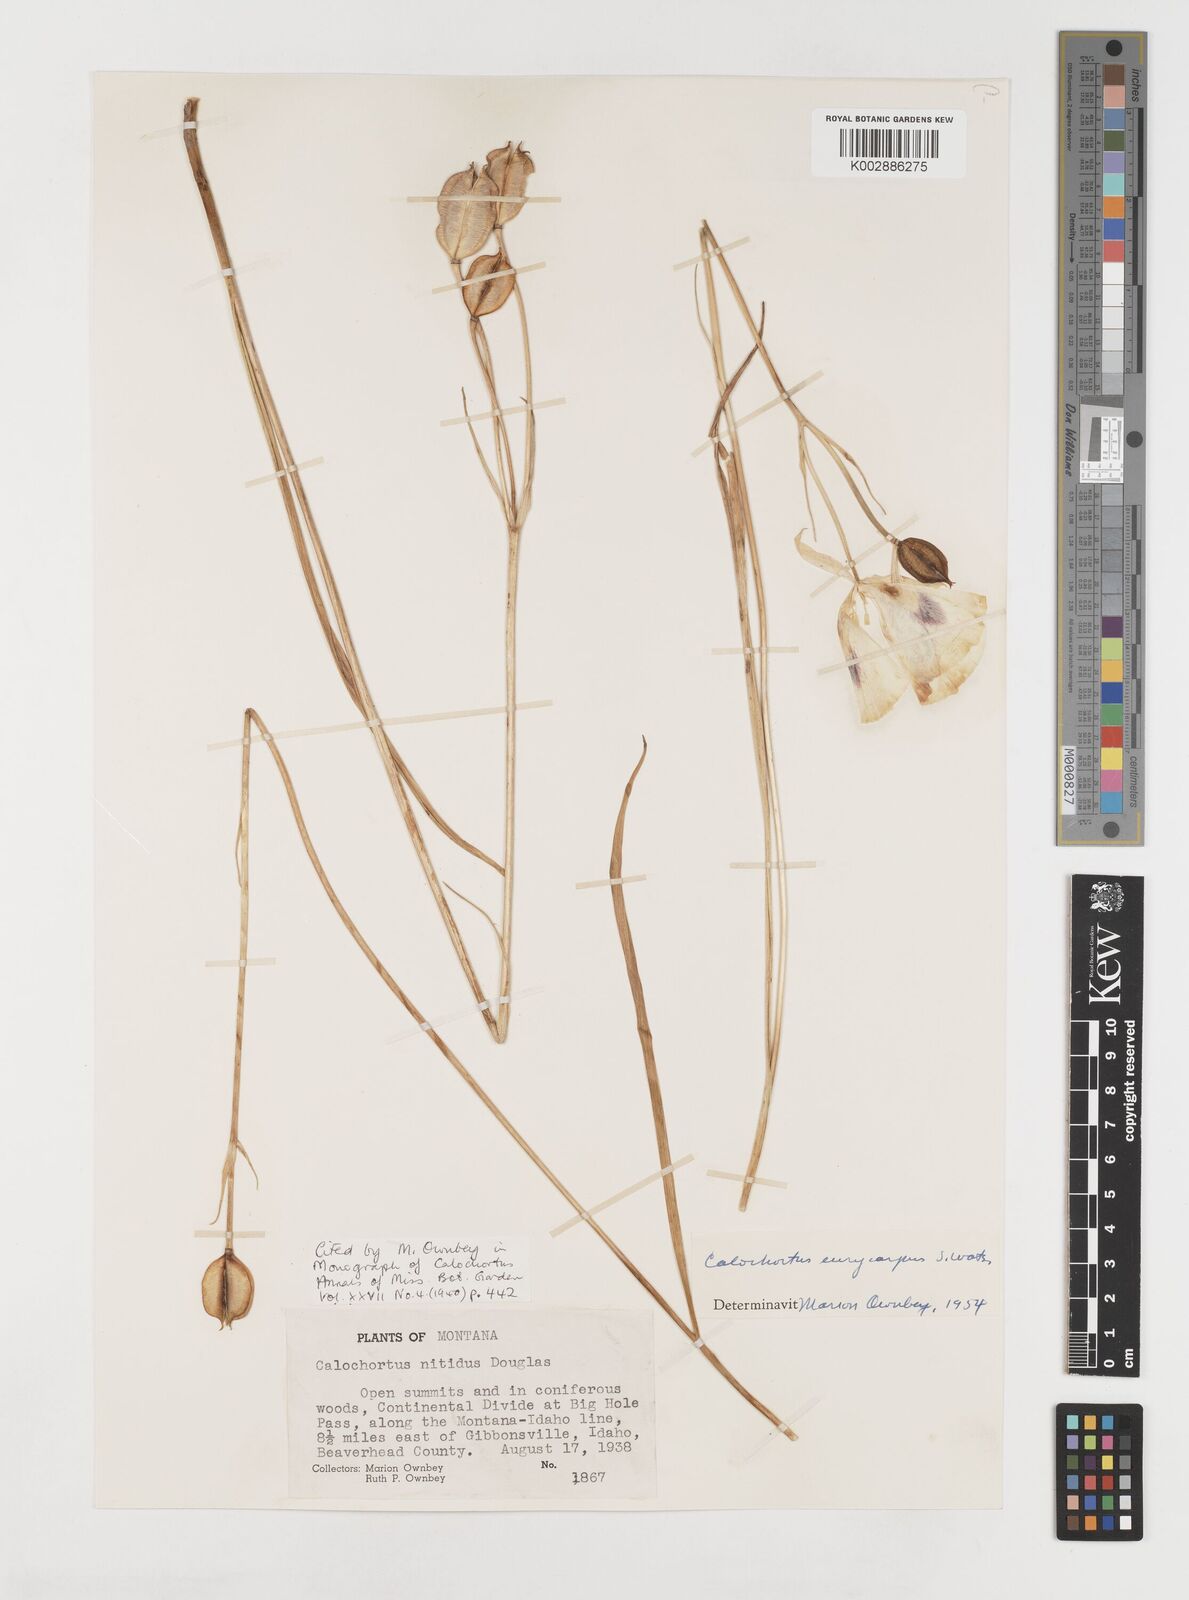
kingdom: Plantae
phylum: Tracheophyta
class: Liliopsida
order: Liliales
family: Liliaceae
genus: Calochortus
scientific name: Calochortus eurycarpus
